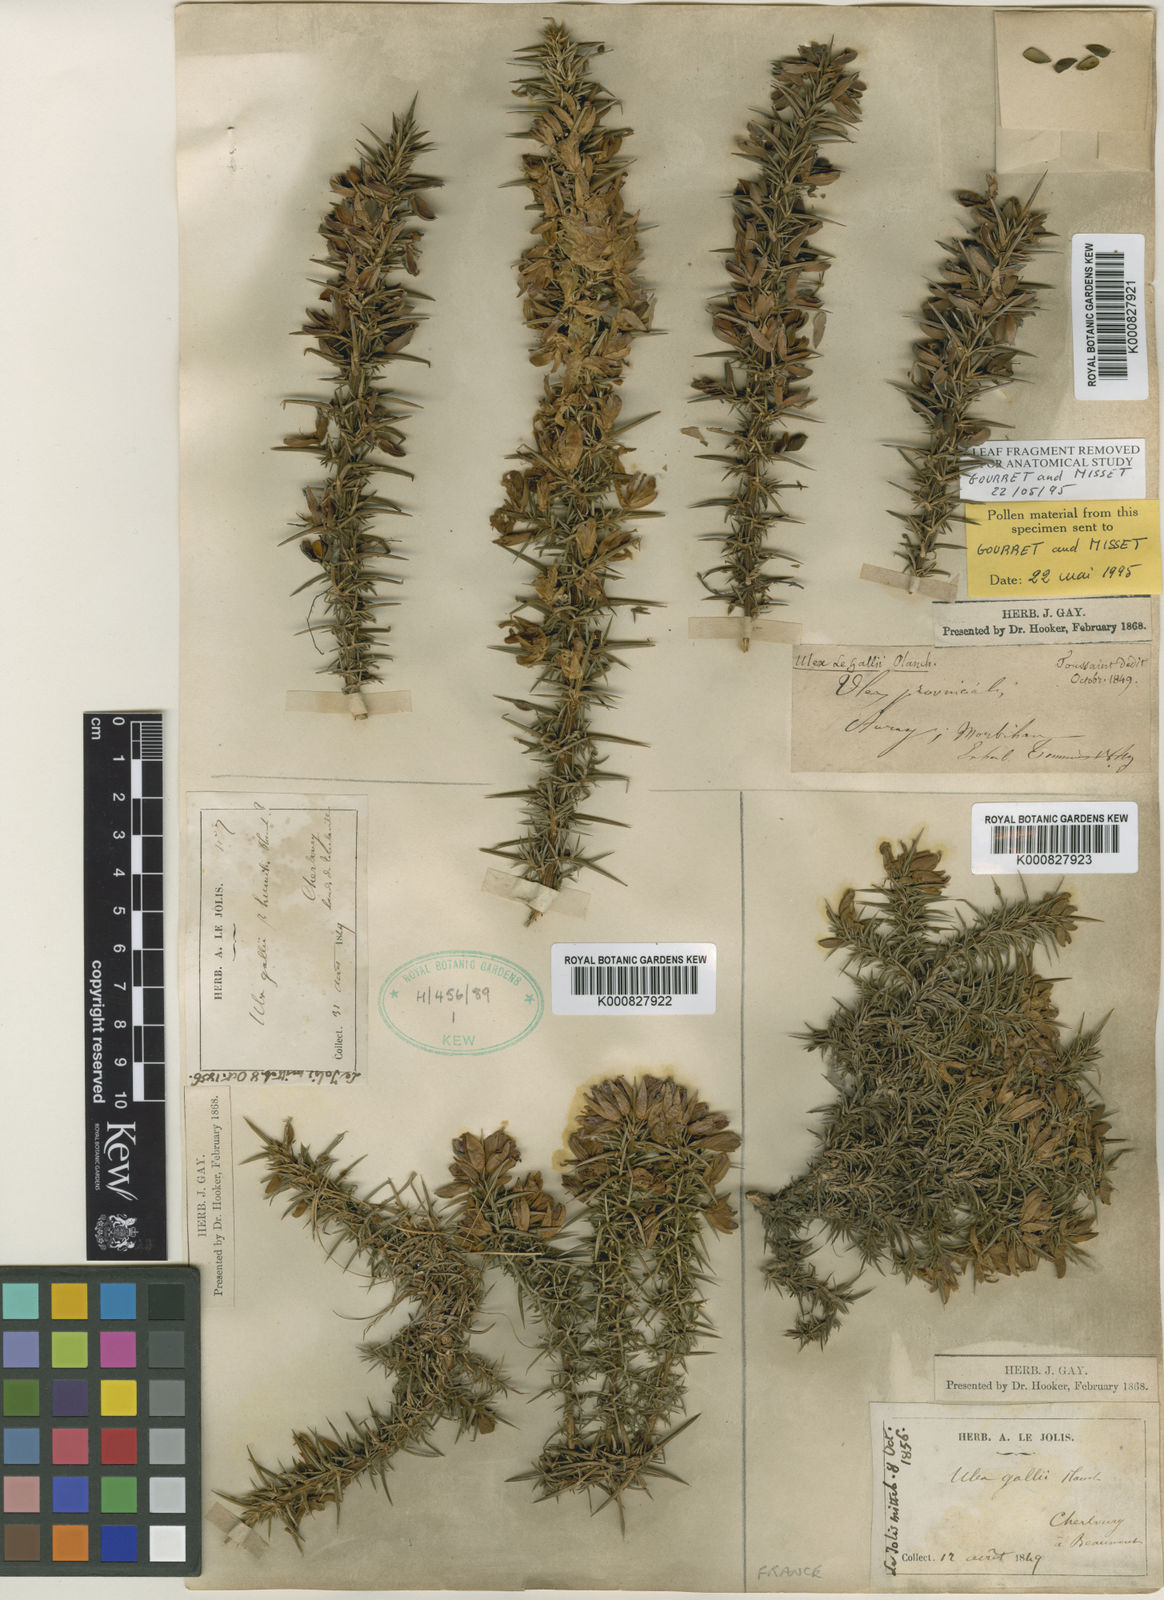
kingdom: Plantae
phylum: Tracheophyta
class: Magnoliopsida
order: Fabales
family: Fabaceae
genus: Ulex
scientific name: Ulex gallii
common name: Western gorse
